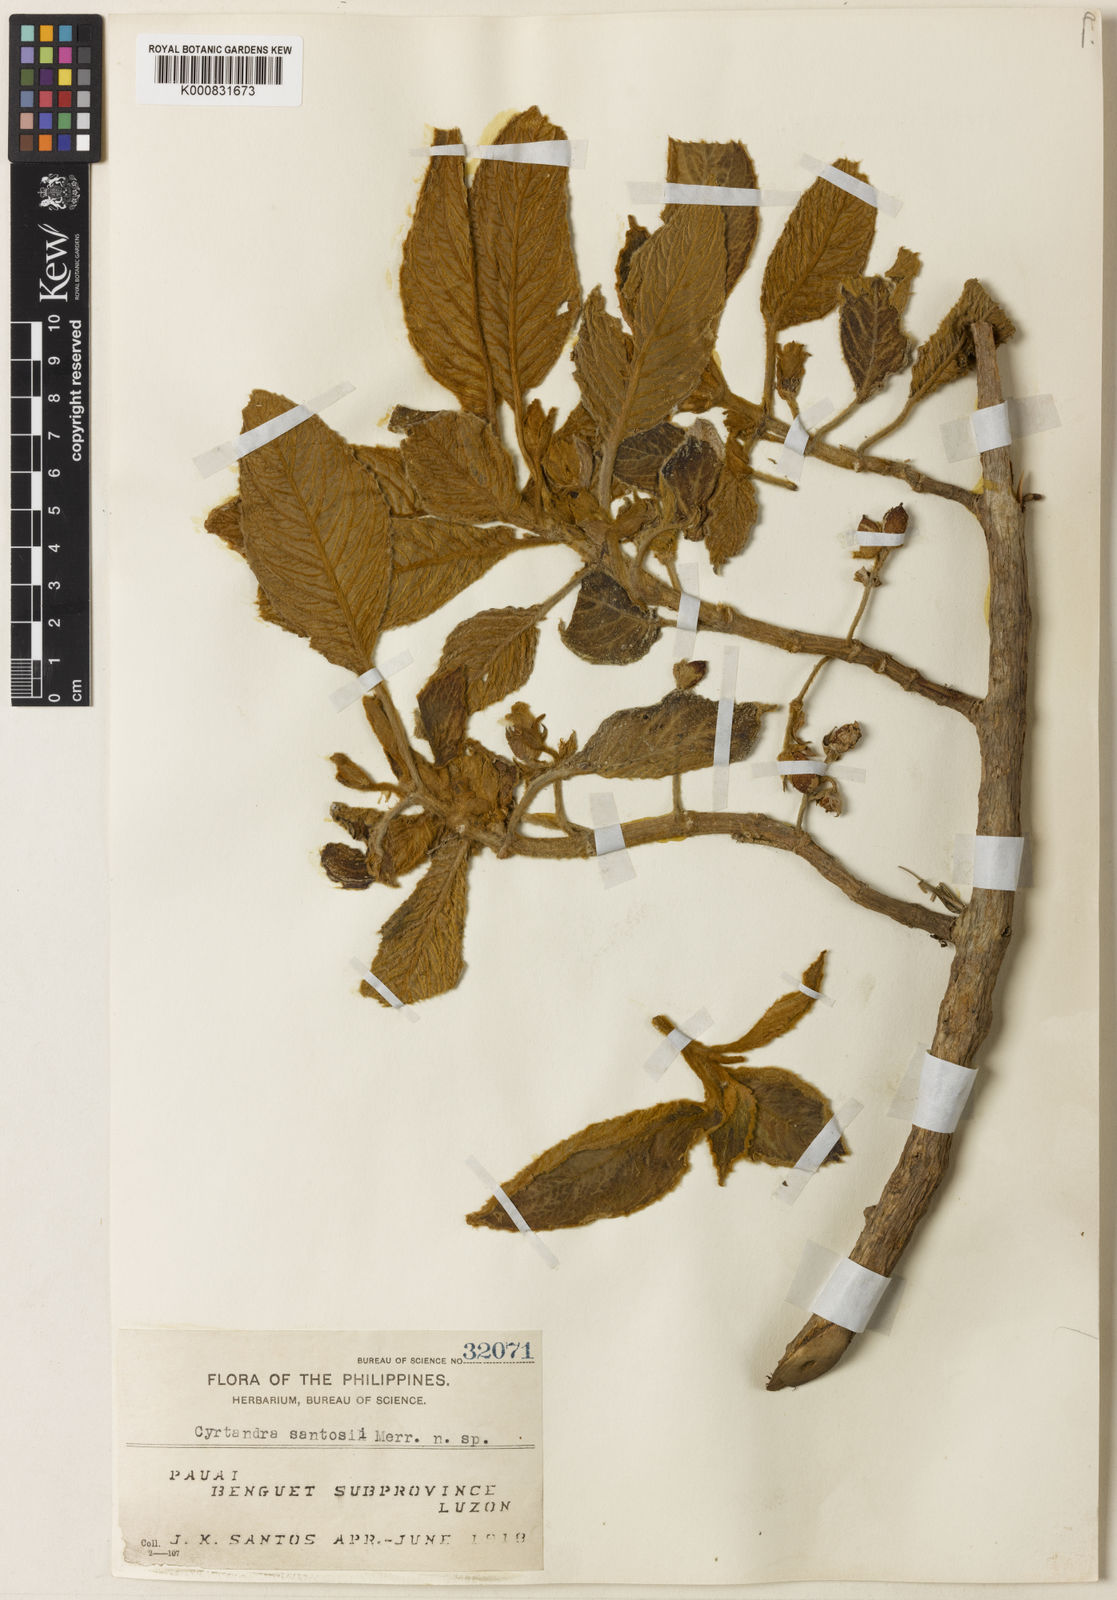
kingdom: Plantae
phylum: Tracheophyta
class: Magnoliopsida
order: Lamiales
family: Gesneriaceae
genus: Cyrtandra
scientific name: Cyrtandra santosii
